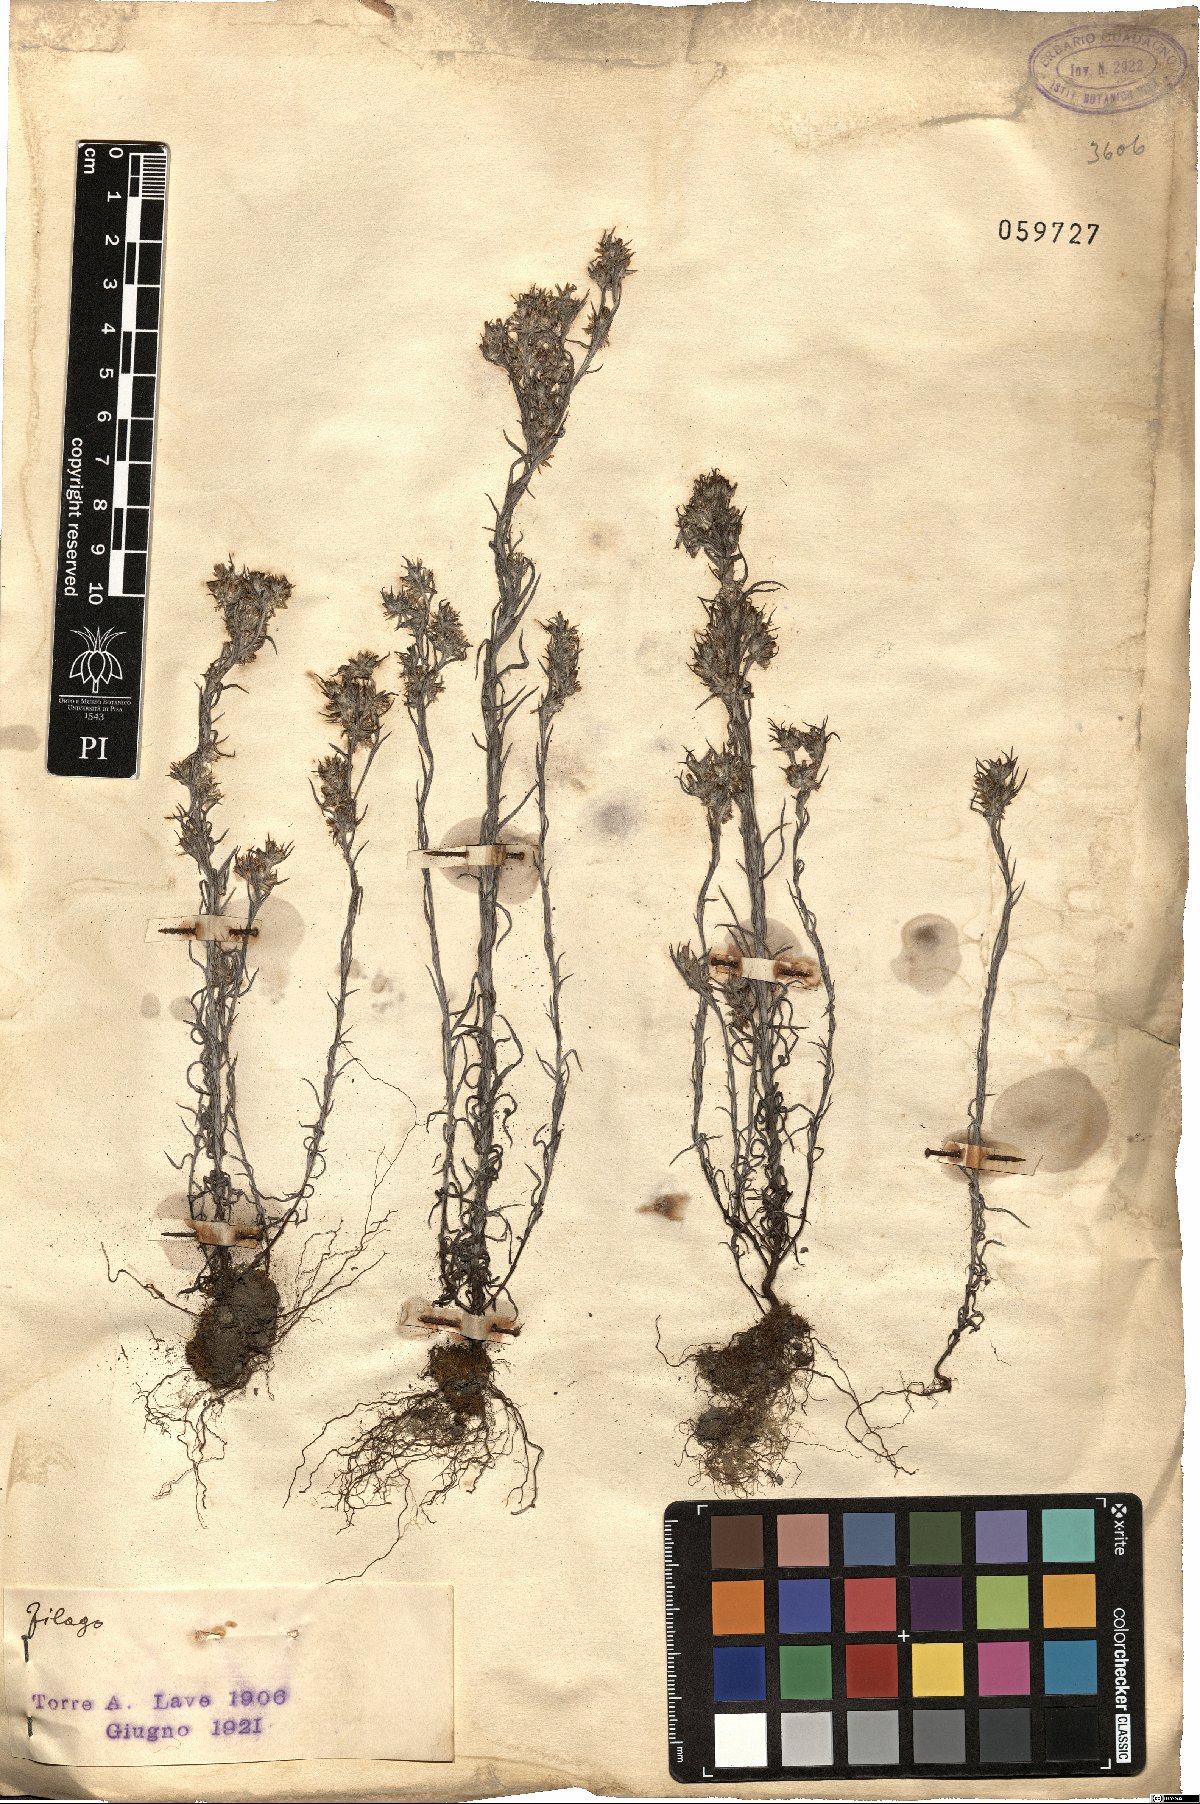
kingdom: Plantae
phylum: Tracheophyta
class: Magnoliopsida
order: Asterales
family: Asteraceae
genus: Filago
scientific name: Filago
